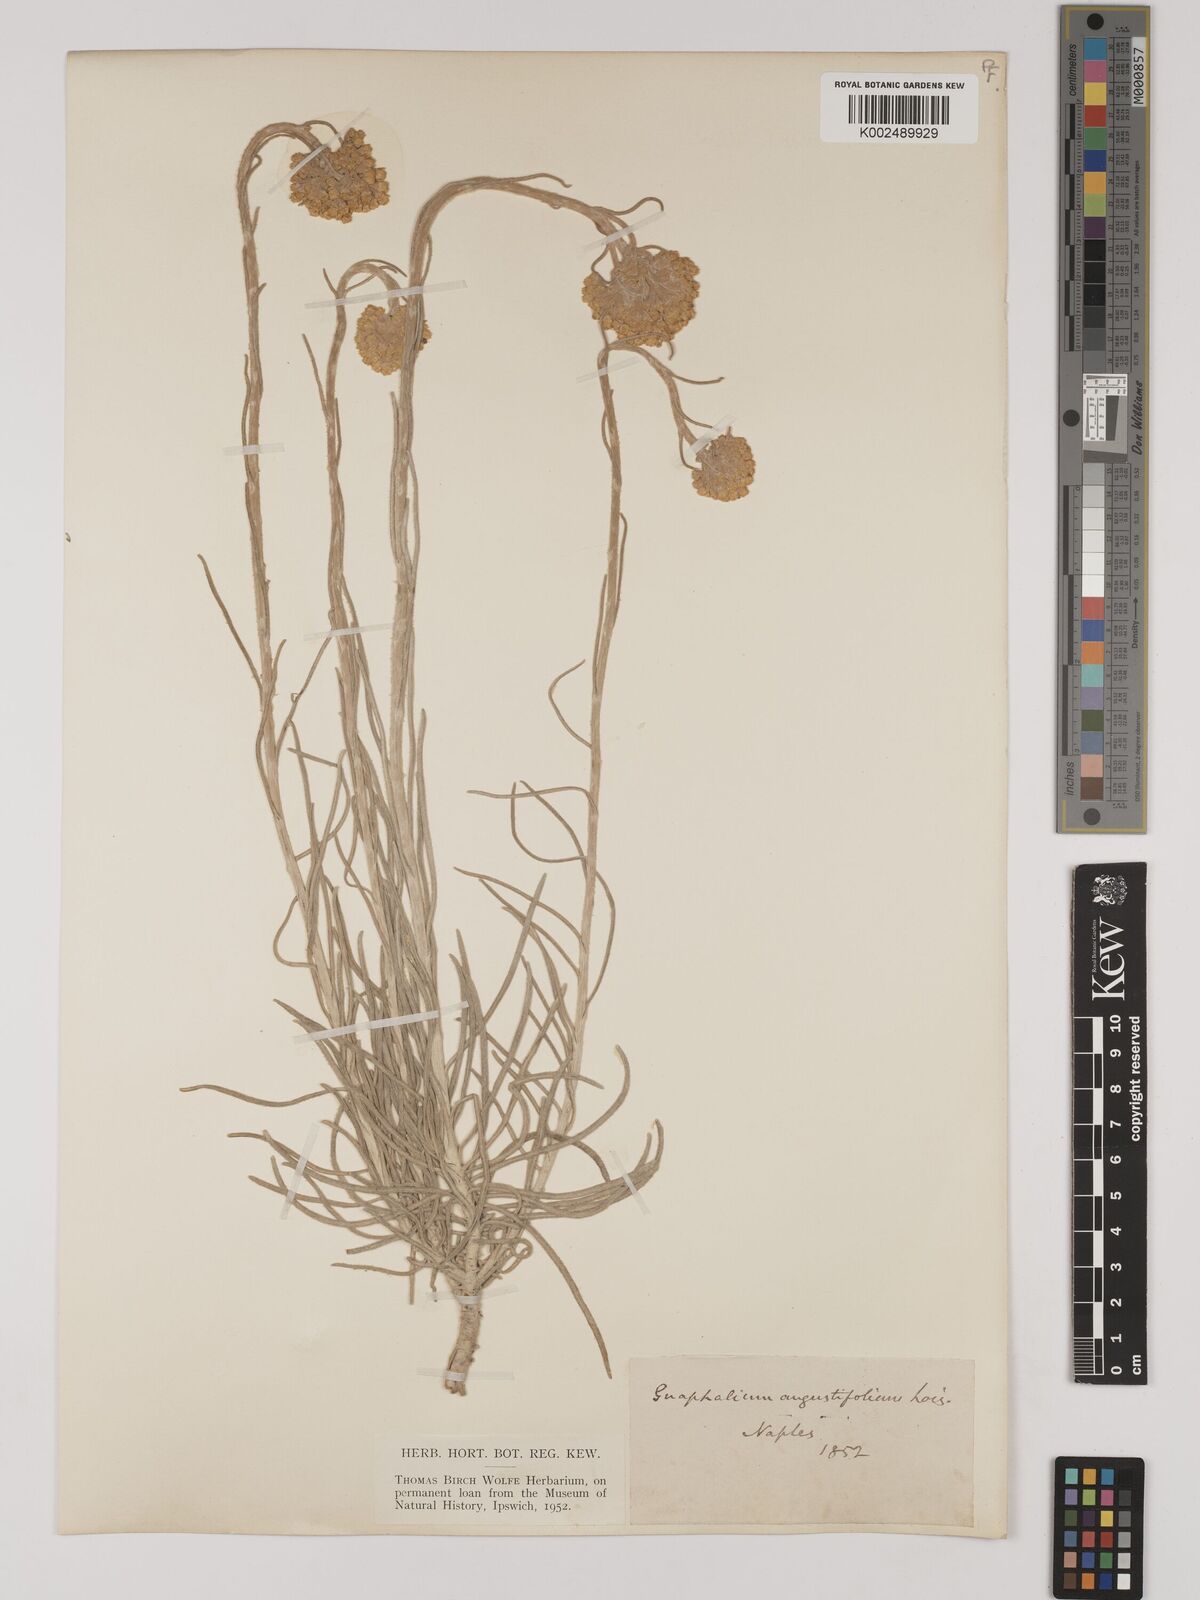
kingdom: Plantae
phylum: Tracheophyta
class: Magnoliopsida
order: Asterales
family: Asteraceae
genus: Helichrysum
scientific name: Helichrysum
